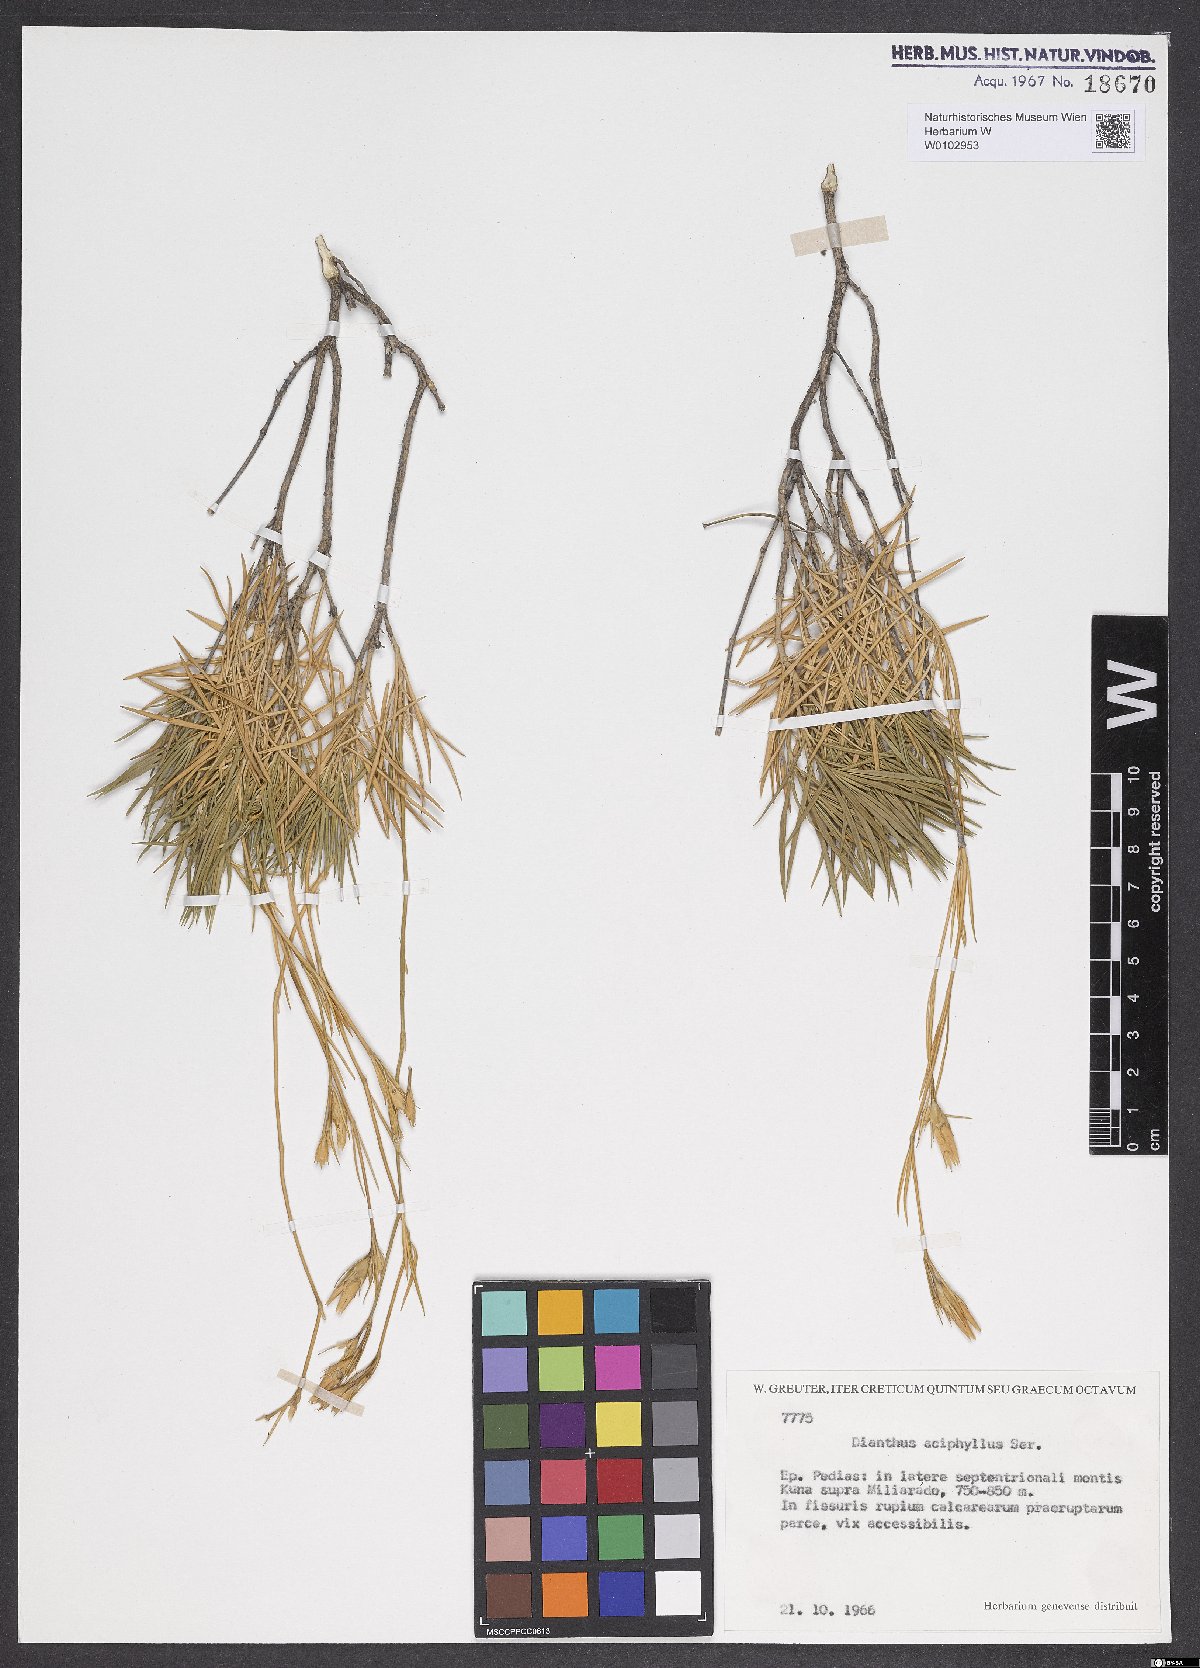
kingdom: Plantae
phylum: Tracheophyta
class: Magnoliopsida
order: Caryophyllales
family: Caryophyllaceae
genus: Dianthus
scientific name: Dianthus juniperinus
